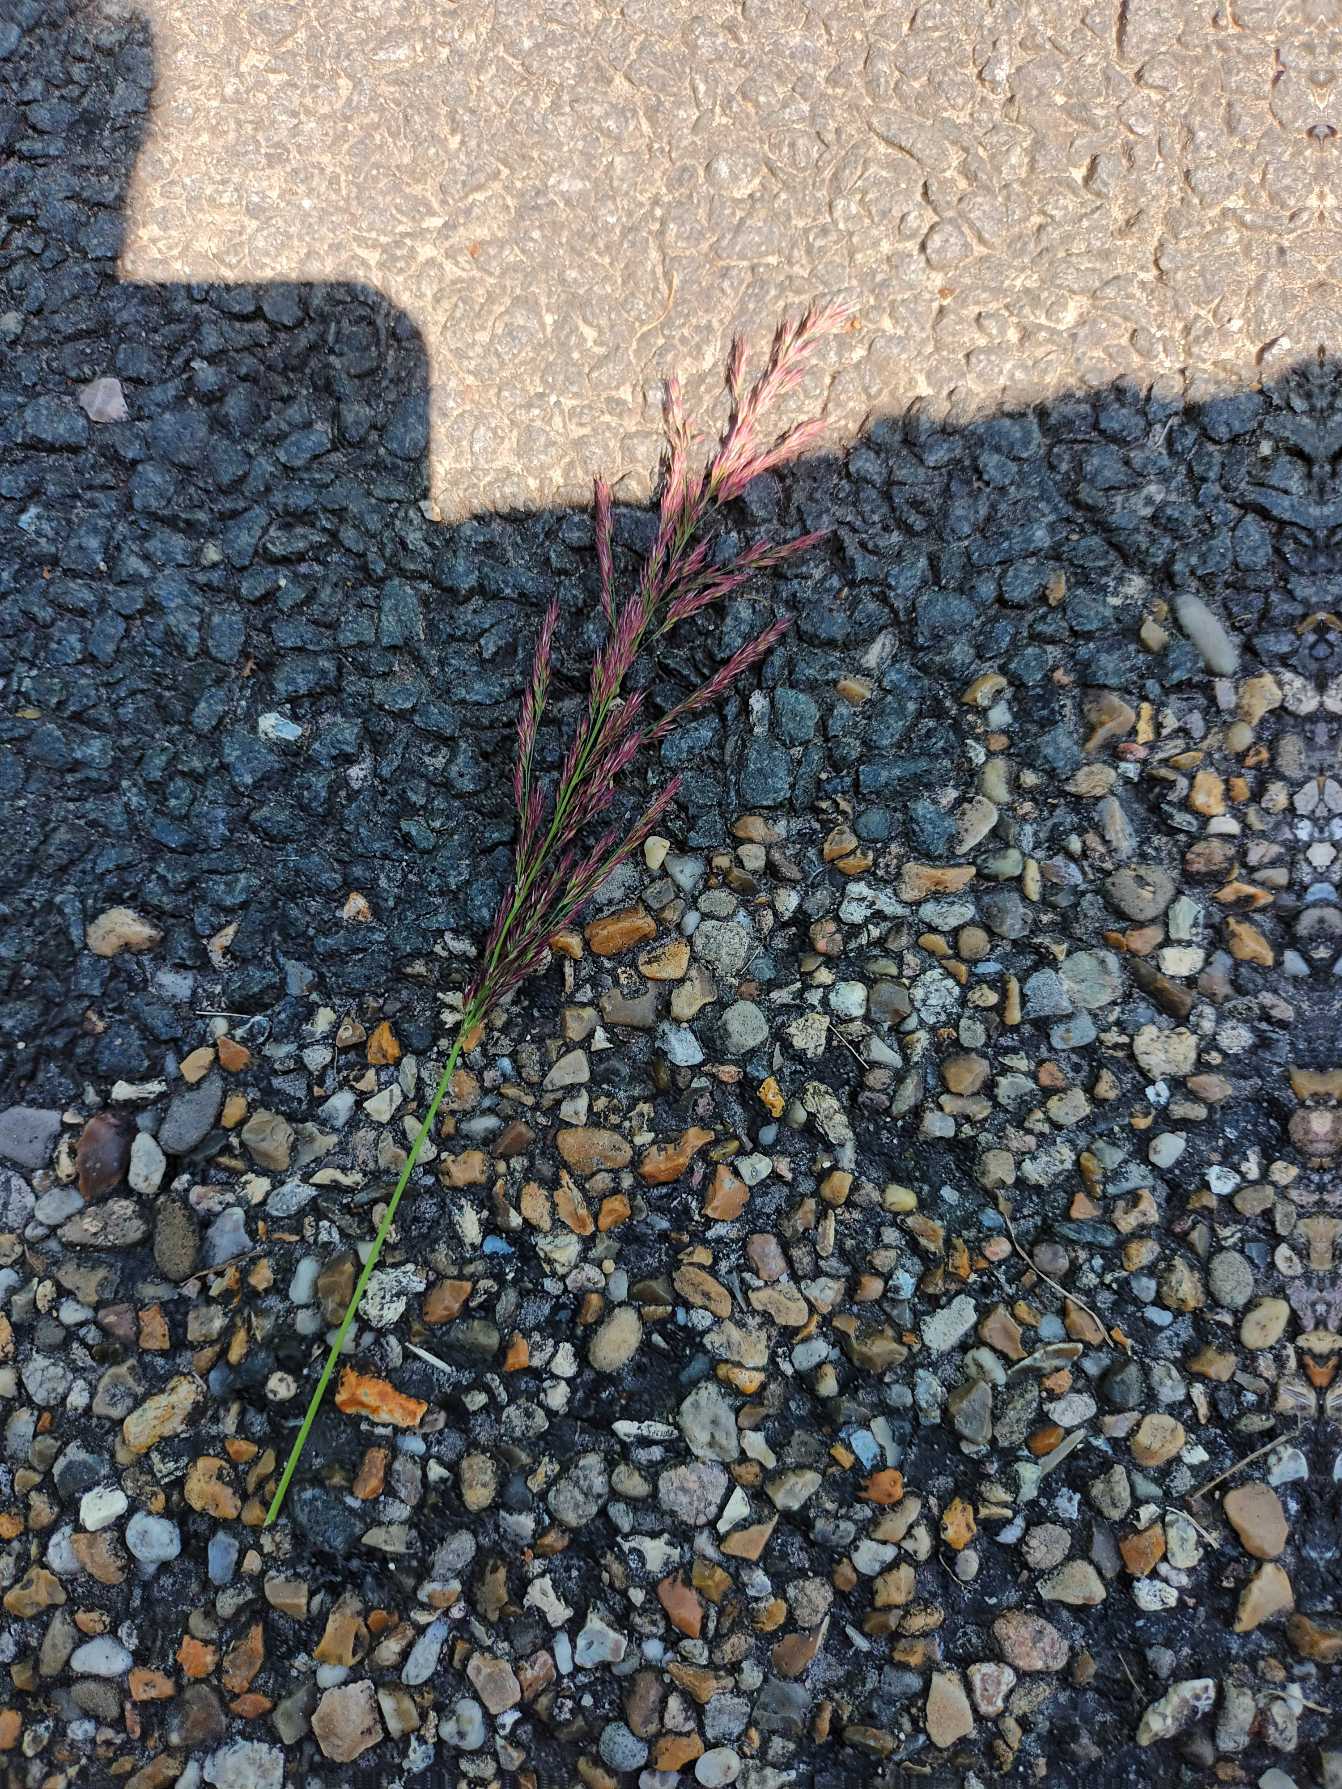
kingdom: Plantae
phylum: Tracheophyta
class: Liliopsida
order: Poales
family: Poaceae
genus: Calamagrostis
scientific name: Calamagrostis canescens
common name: Eng-rørhvene
